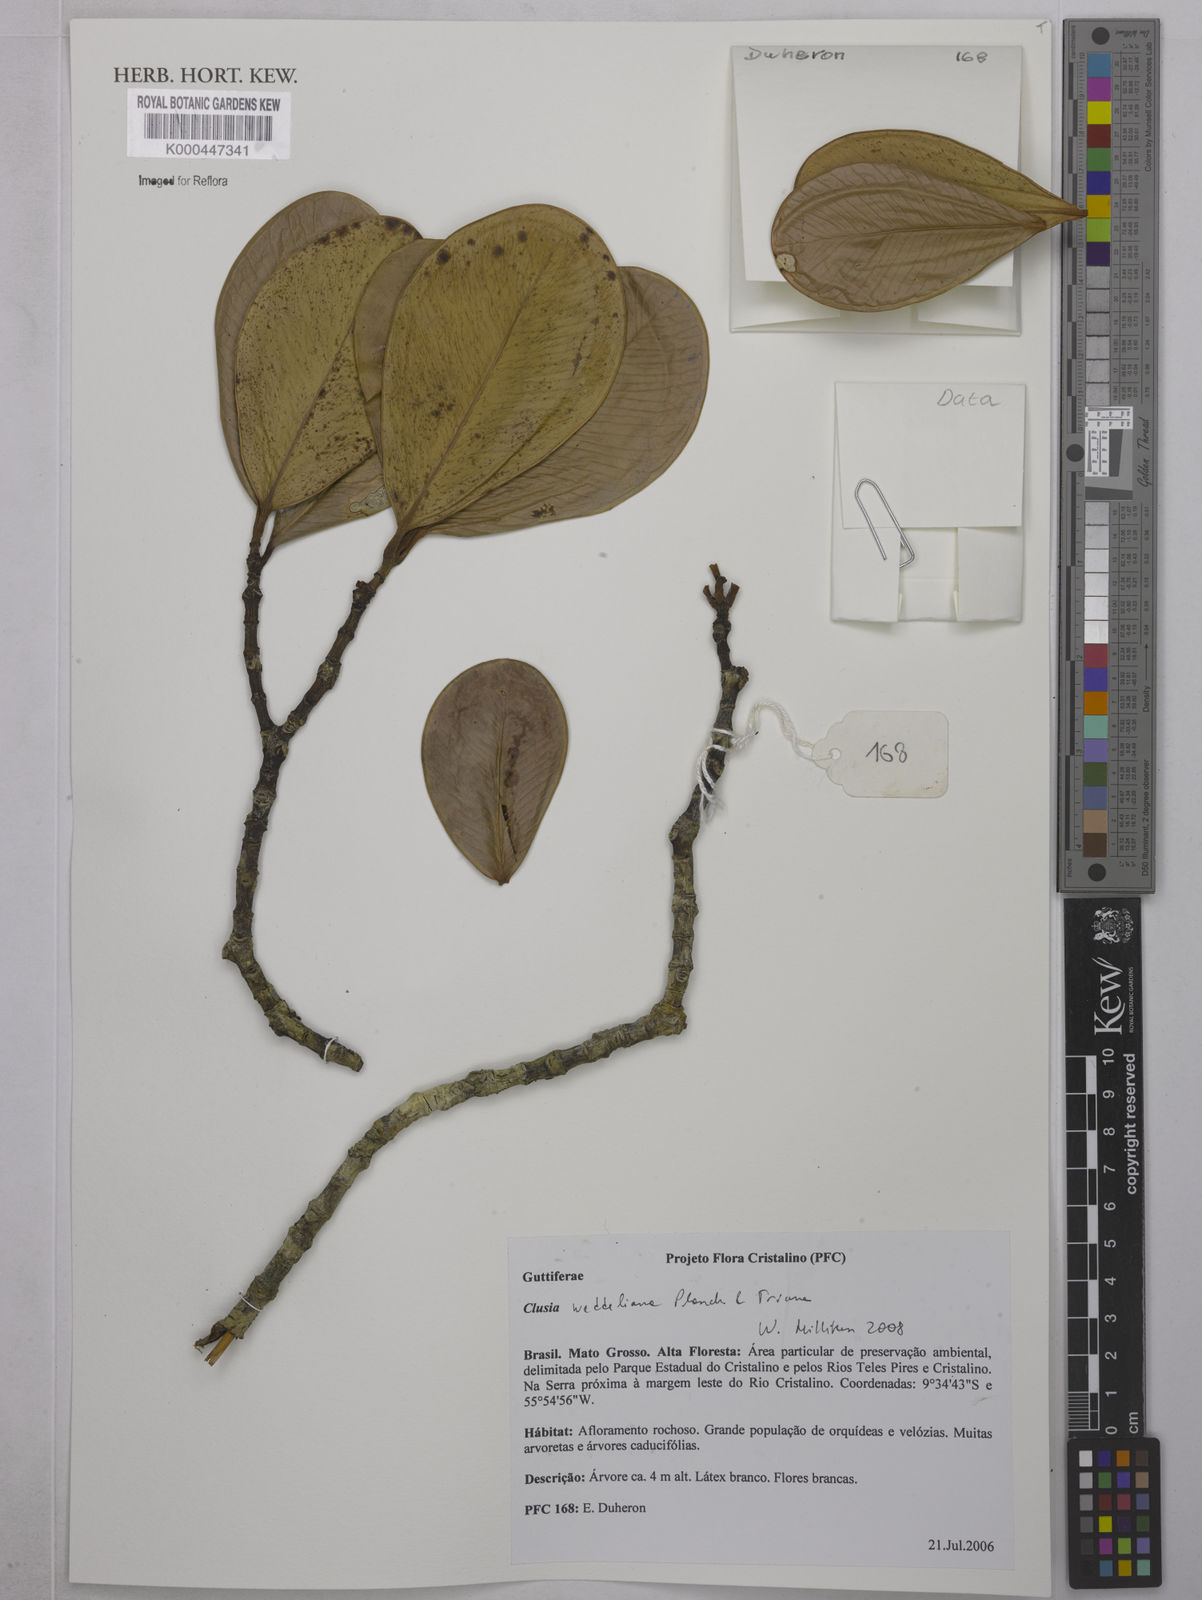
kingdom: Plantae
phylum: Tracheophyta
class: Magnoliopsida
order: Malpighiales
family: Clusiaceae
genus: Clusia
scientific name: Clusia weddelliana
